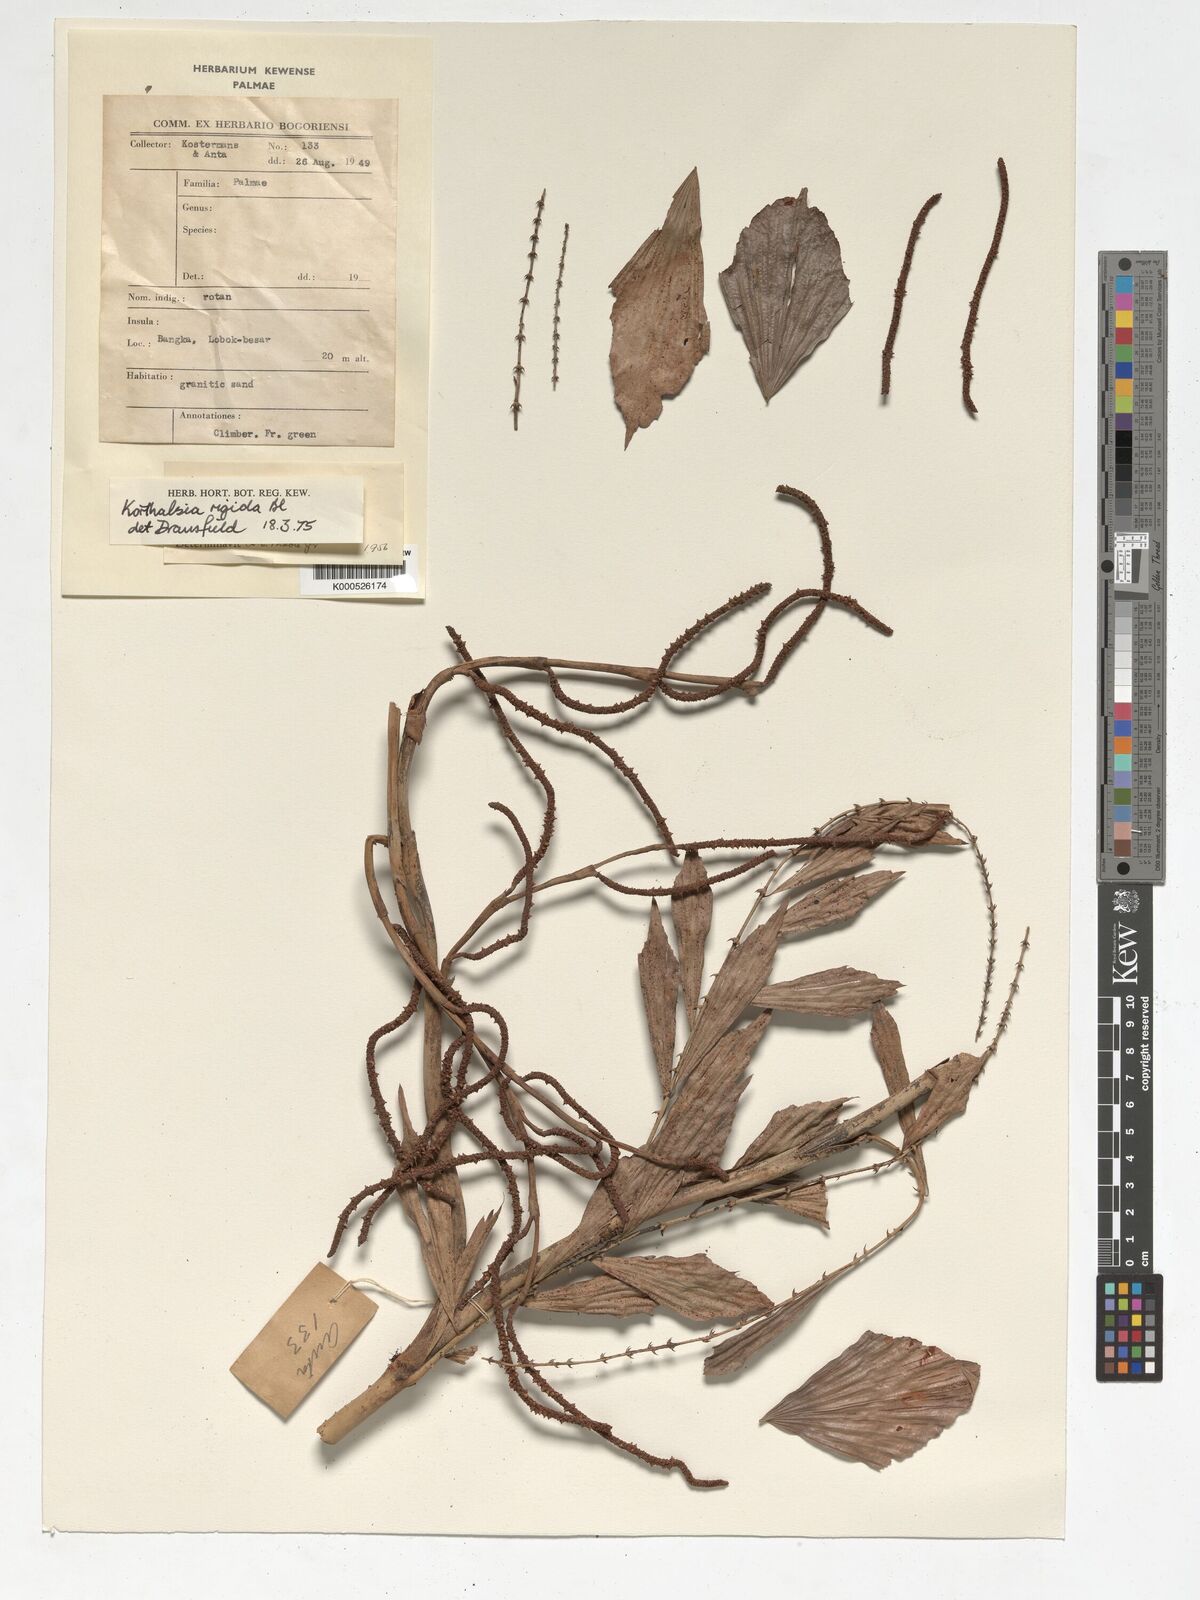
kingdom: Plantae
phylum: Tracheophyta
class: Liliopsida
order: Arecales
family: Arecaceae
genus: Korthalsia
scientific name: Korthalsia rigida
